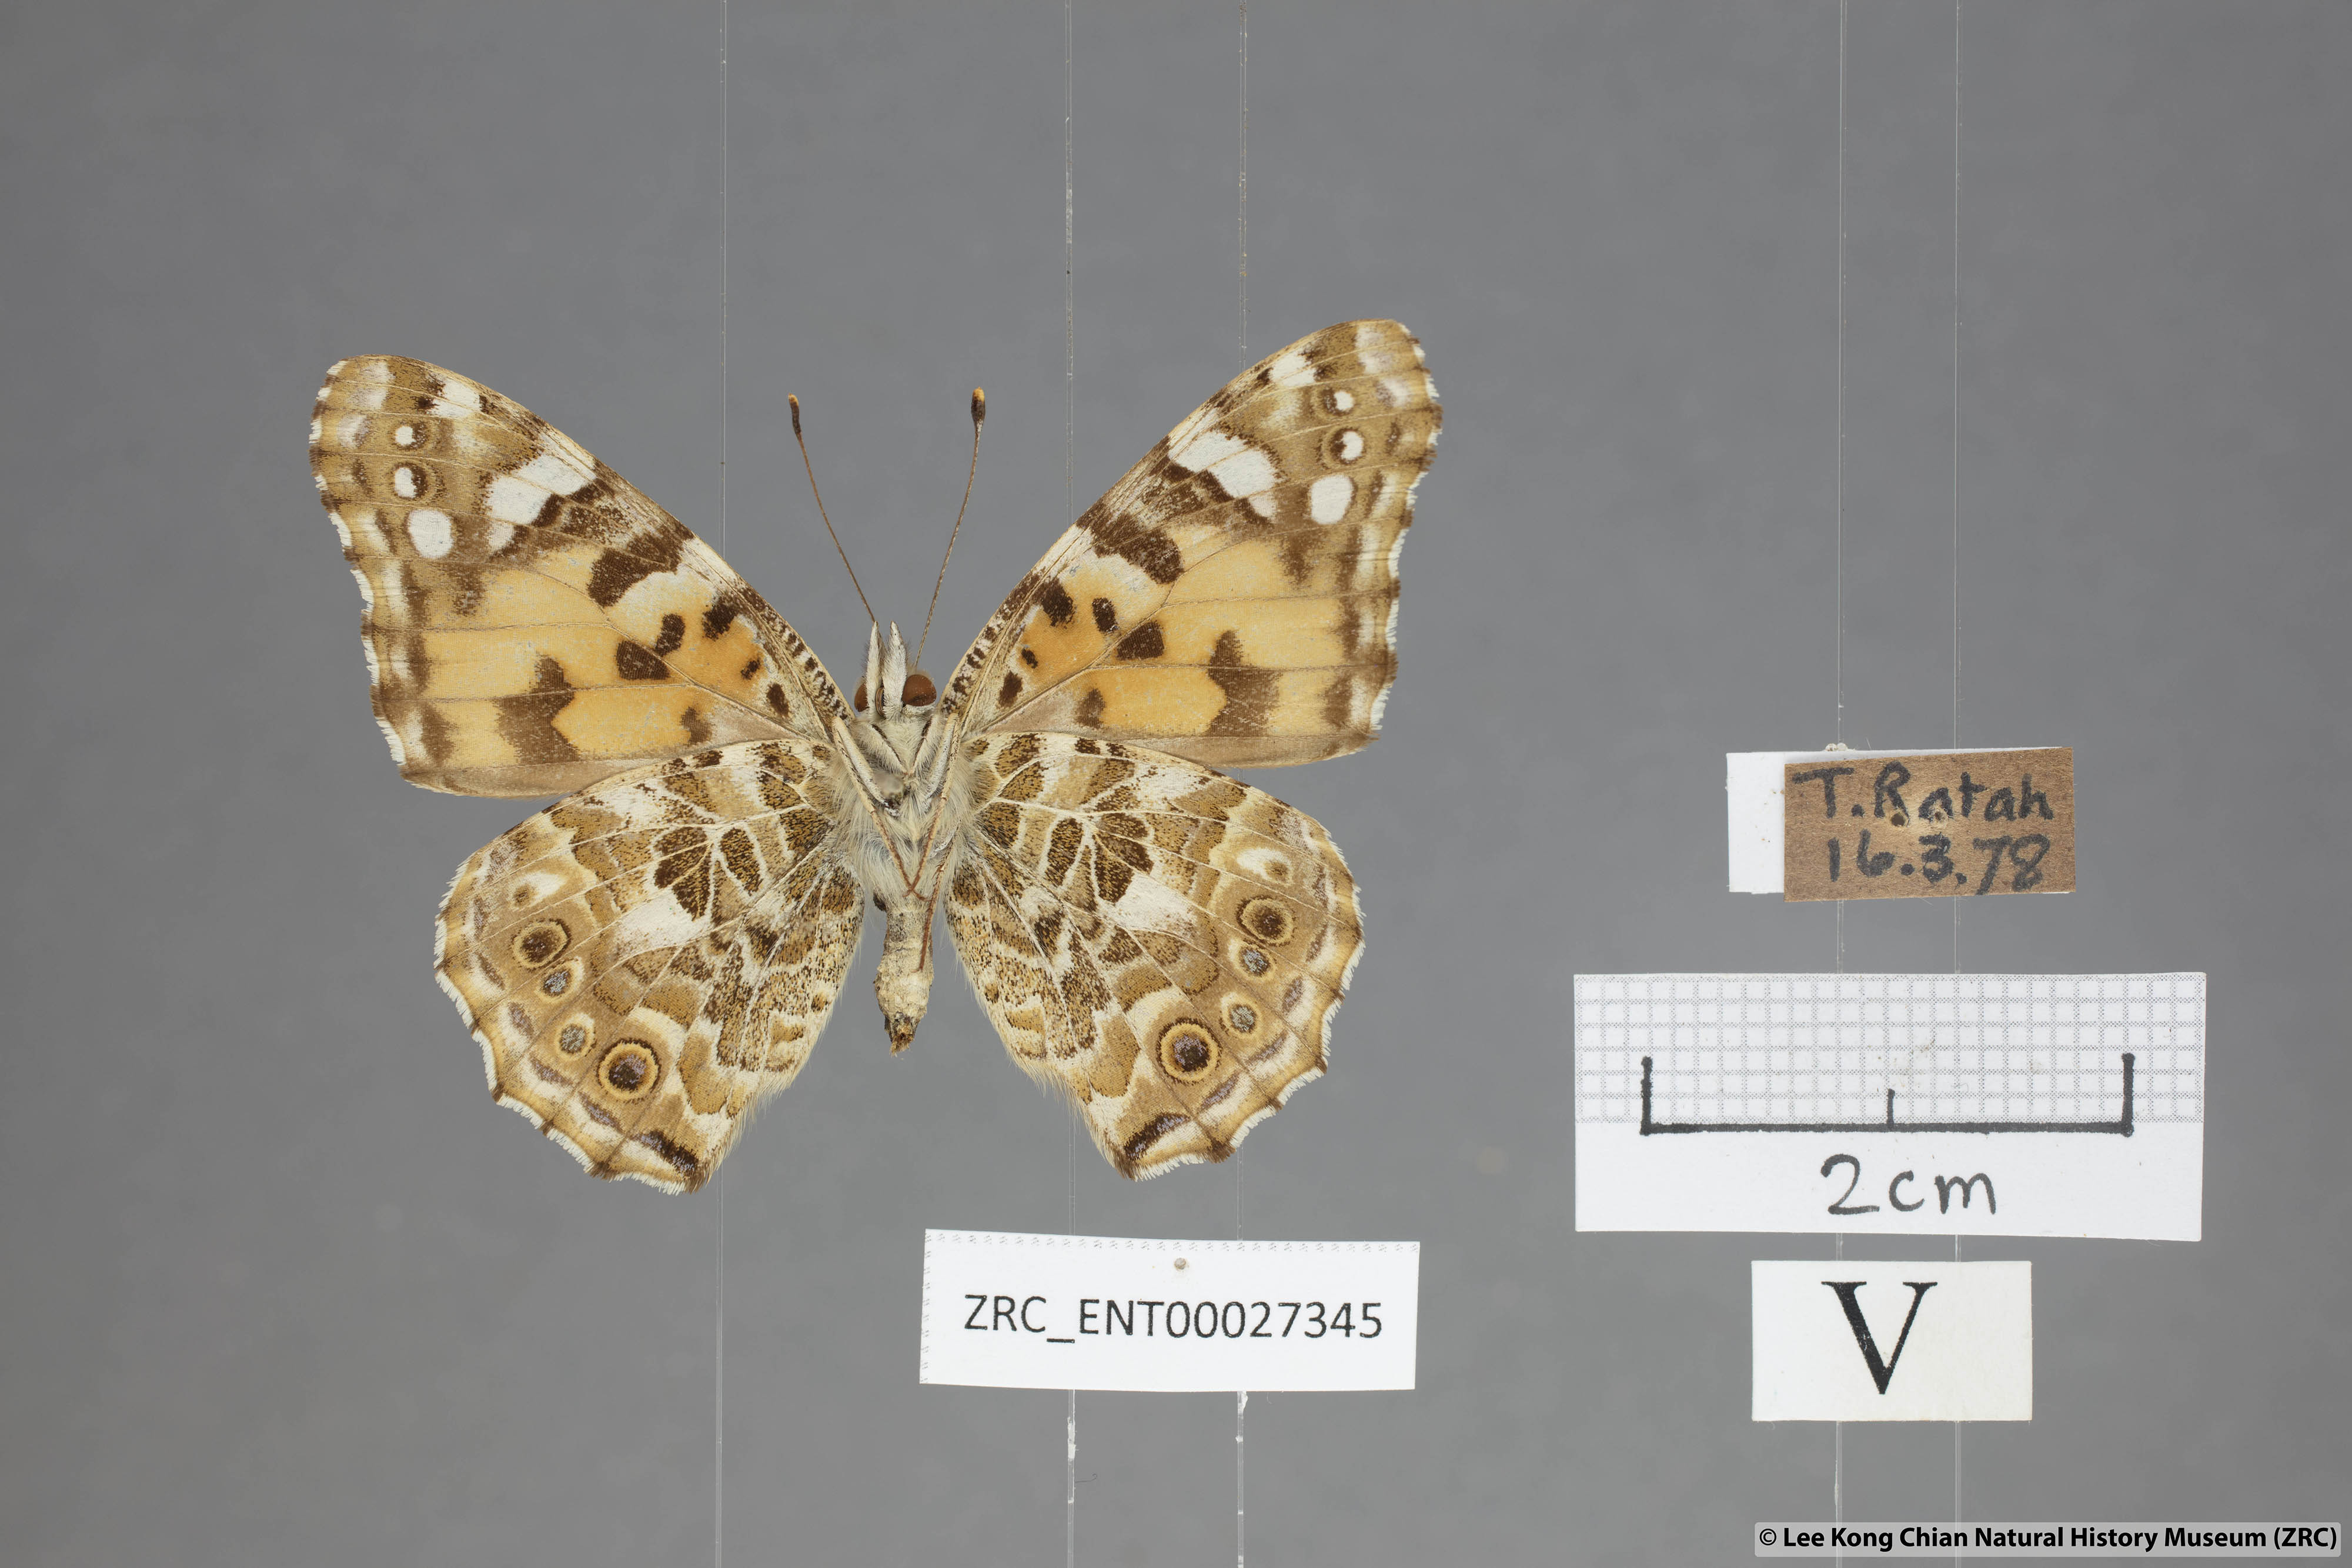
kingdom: Animalia
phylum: Arthropoda
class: Insecta
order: Lepidoptera
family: Nymphalidae
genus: Vanessa
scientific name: Vanessa cardui
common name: Painted lady
